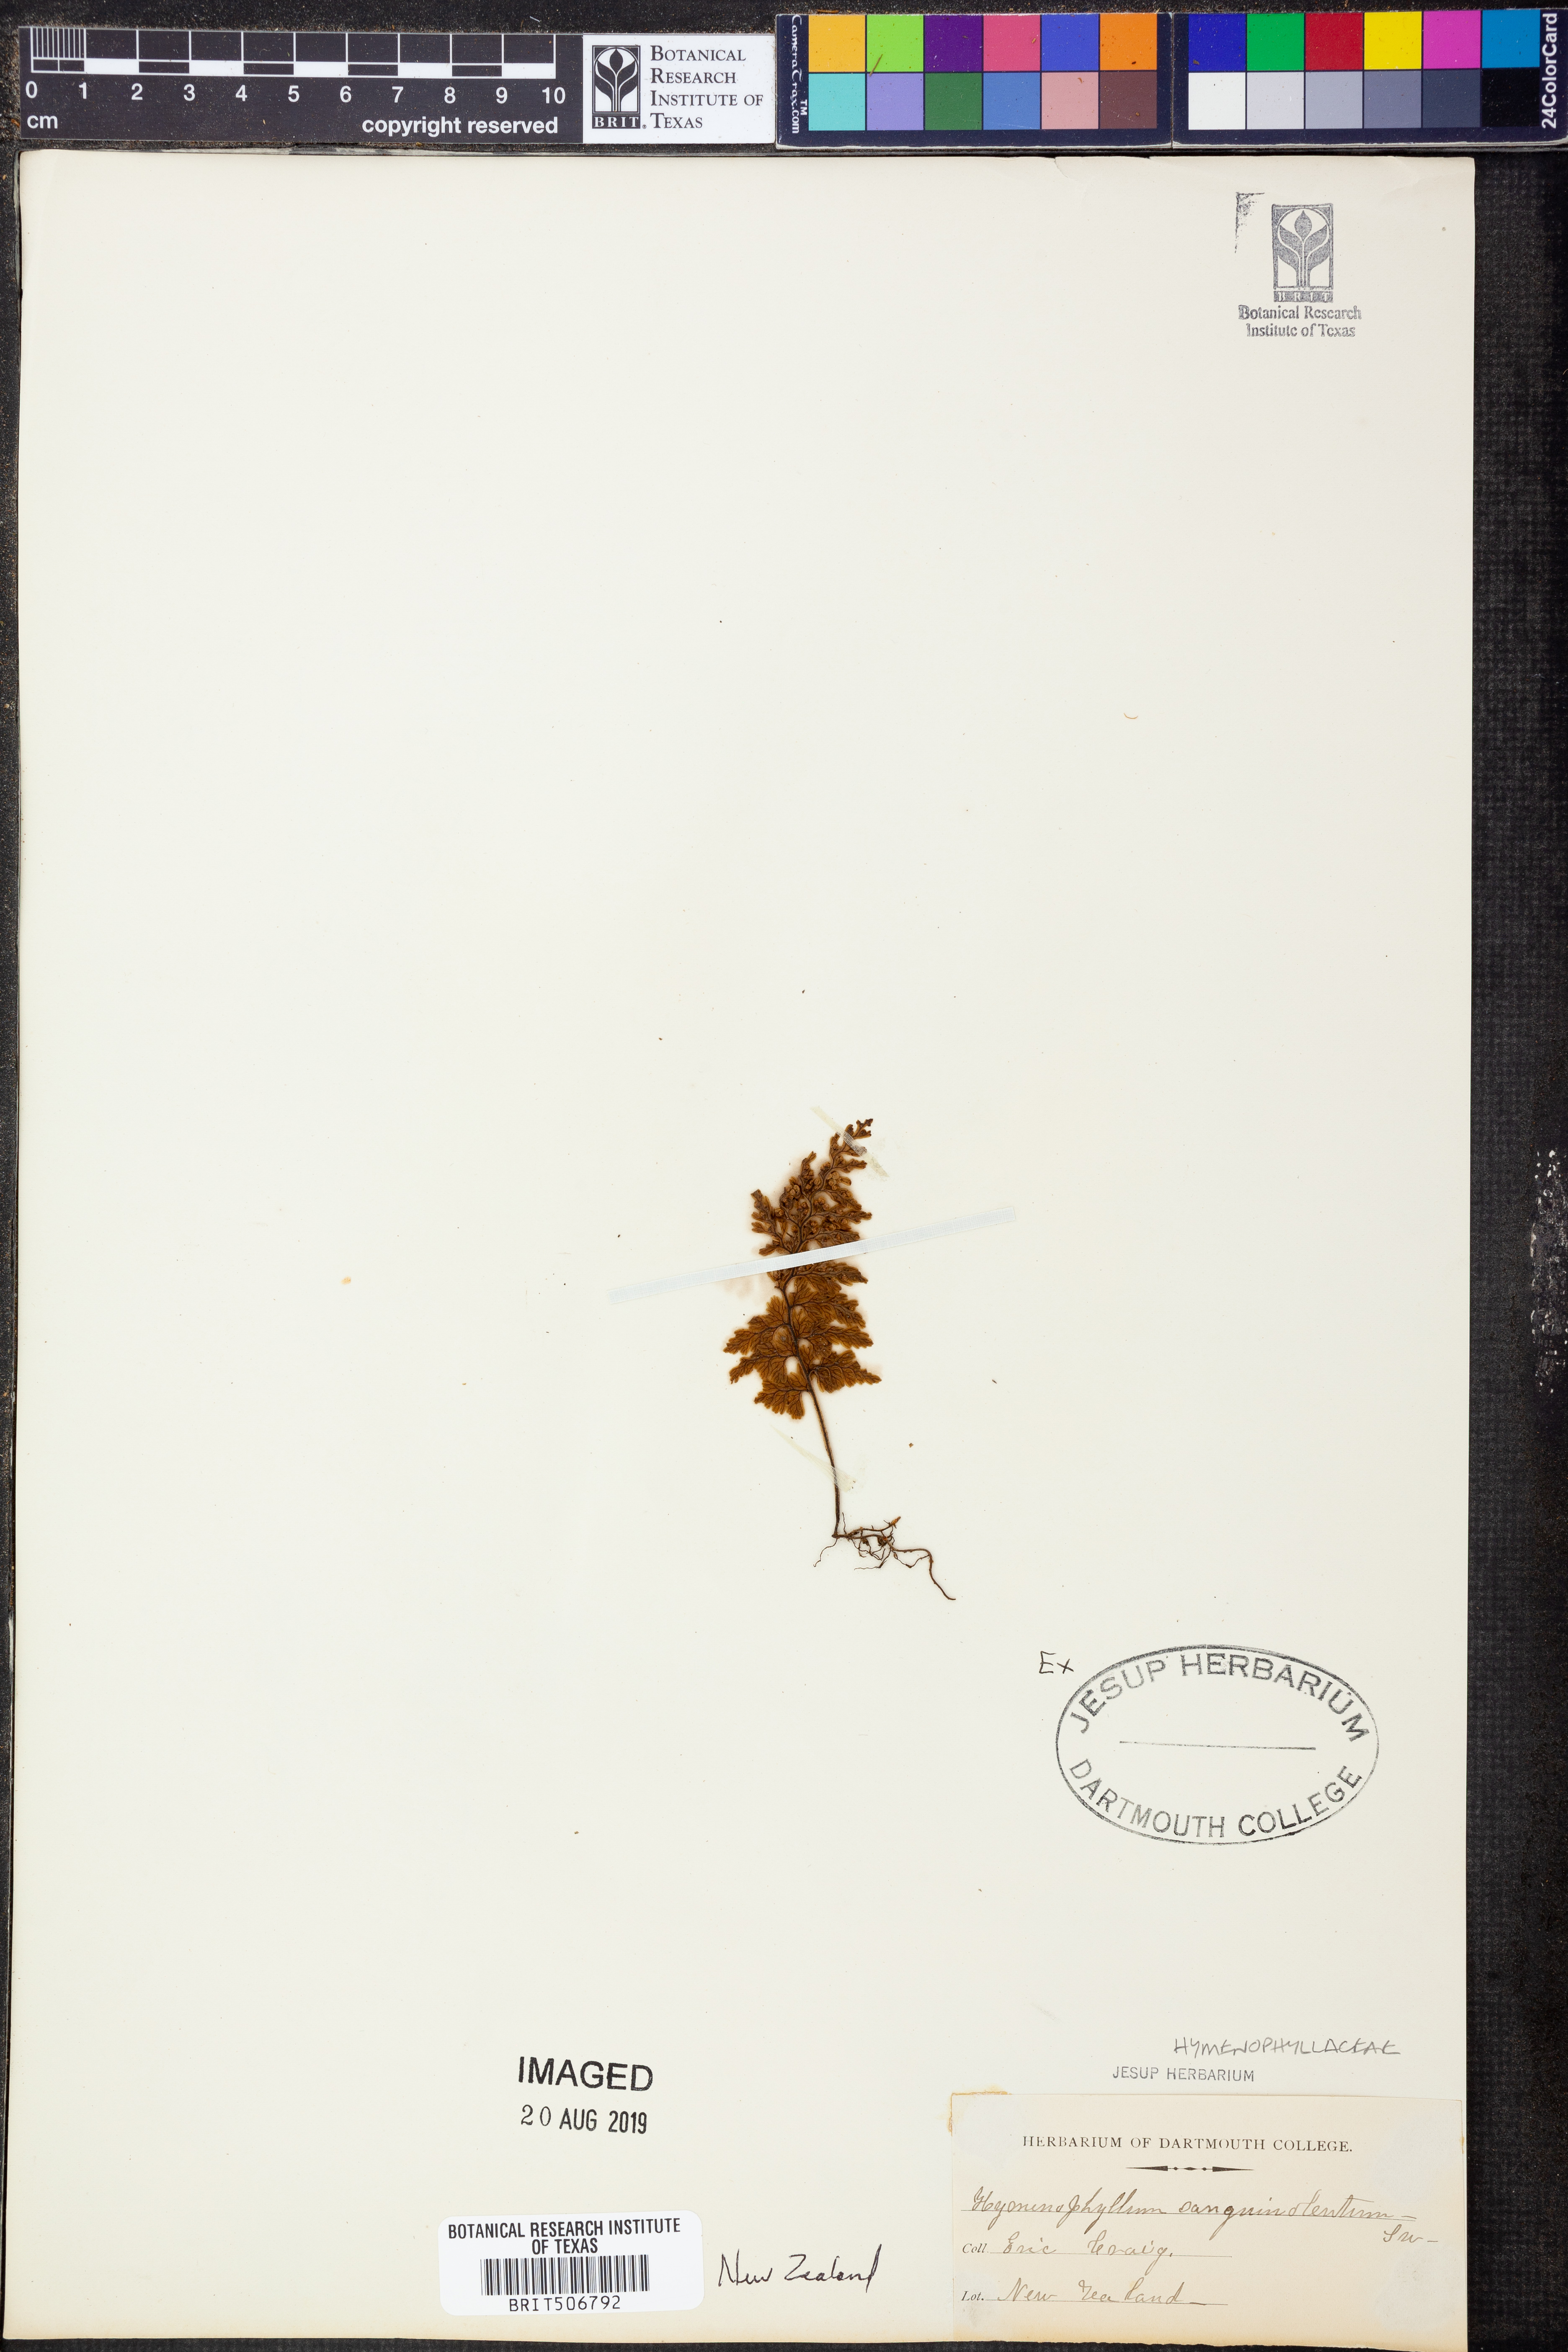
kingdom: Plantae
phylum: Tracheophyta
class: Polypodiopsida
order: Hymenophyllales
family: Hymenophyllaceae
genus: Hymenophyllum
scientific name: Hymenophyllum sanguinolentum
